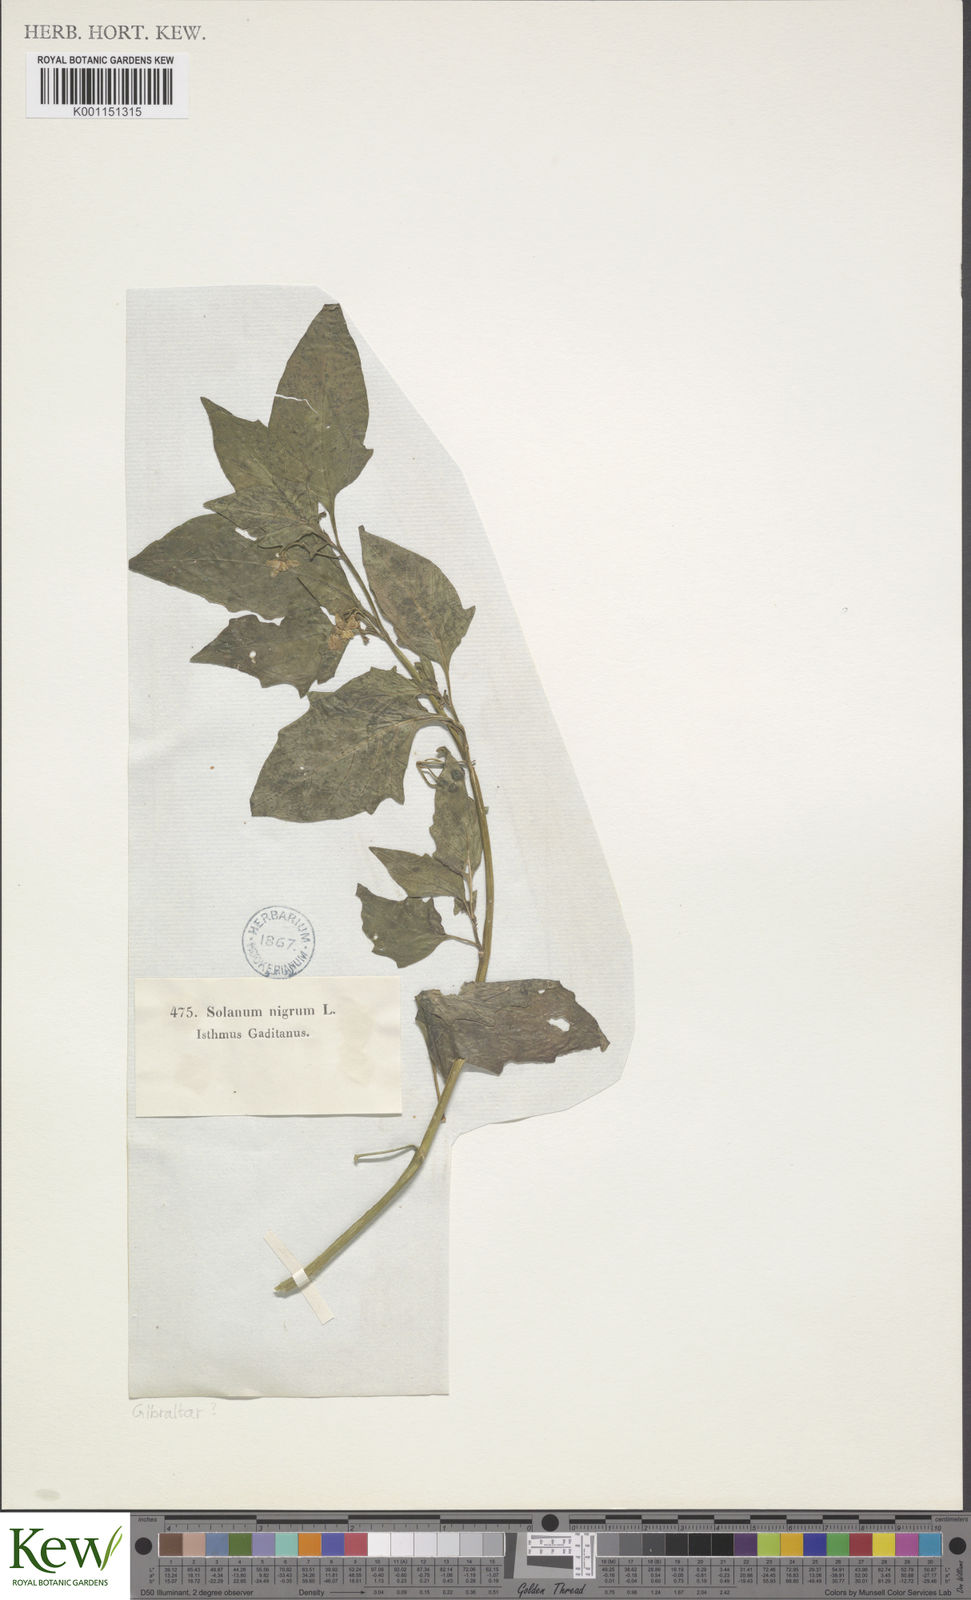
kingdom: Plantae
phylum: Tracheophyta
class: Magnoliopsida
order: Solanales
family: Solanaceae
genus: Solanum
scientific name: Solanum nigrum
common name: Black nightshade
